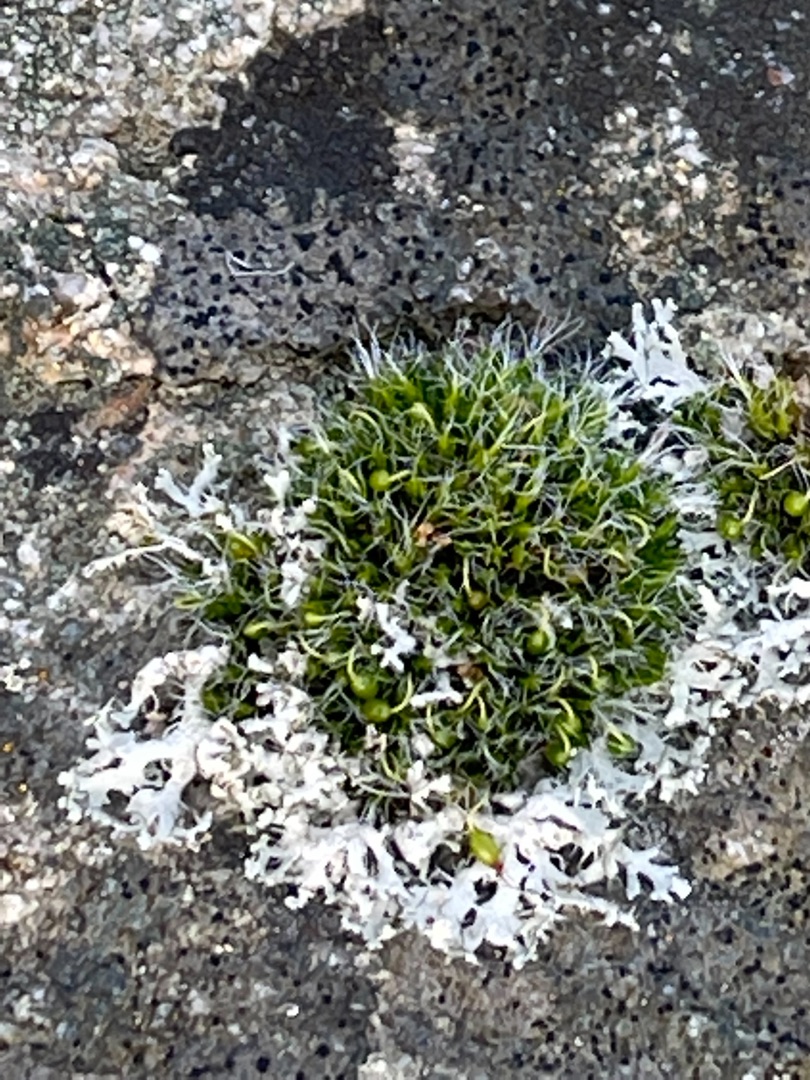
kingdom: Plantae
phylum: Bryophyta
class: Bryopsida
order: Grimmiales
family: Grimmiaceae
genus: Grimmia
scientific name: Grimmia pulvinata
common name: Pude-gråmos
